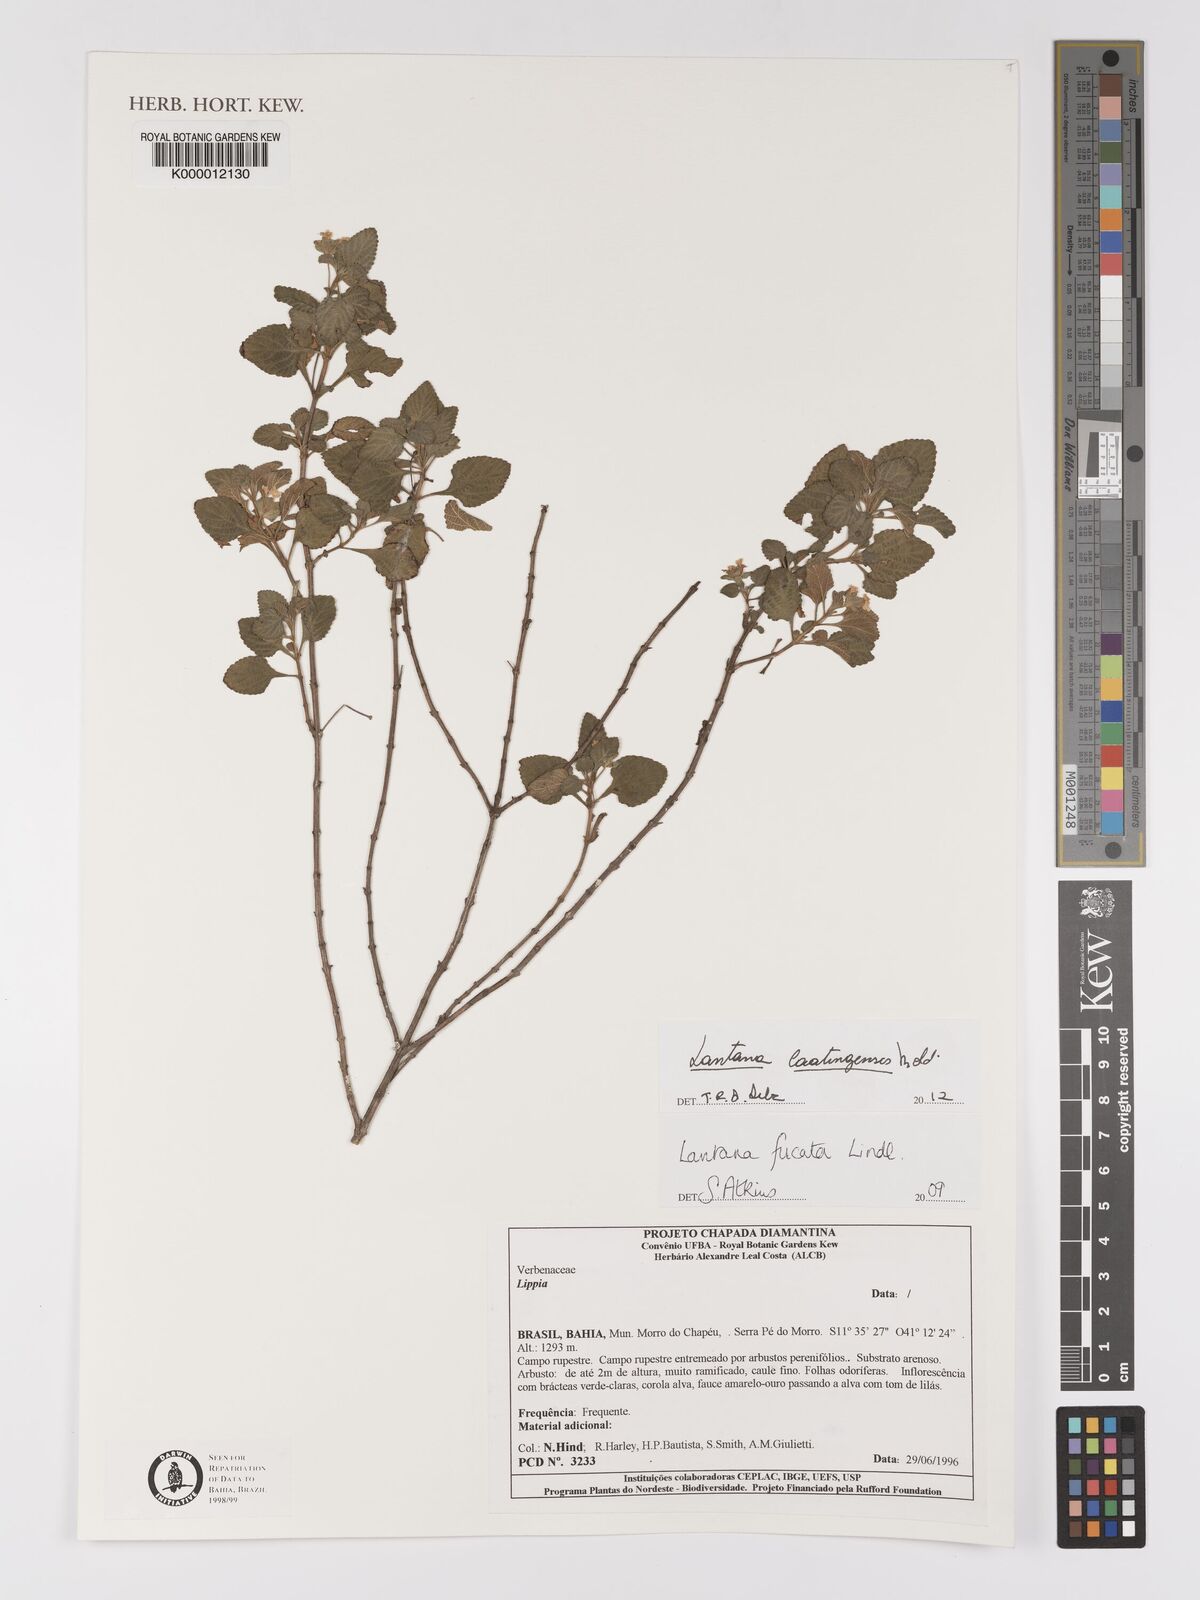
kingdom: Plantae
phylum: Tracheophyta
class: Magnoliopsida
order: Lamiales
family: Verbenaceae
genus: Lantana
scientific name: Lantana caatingensis
